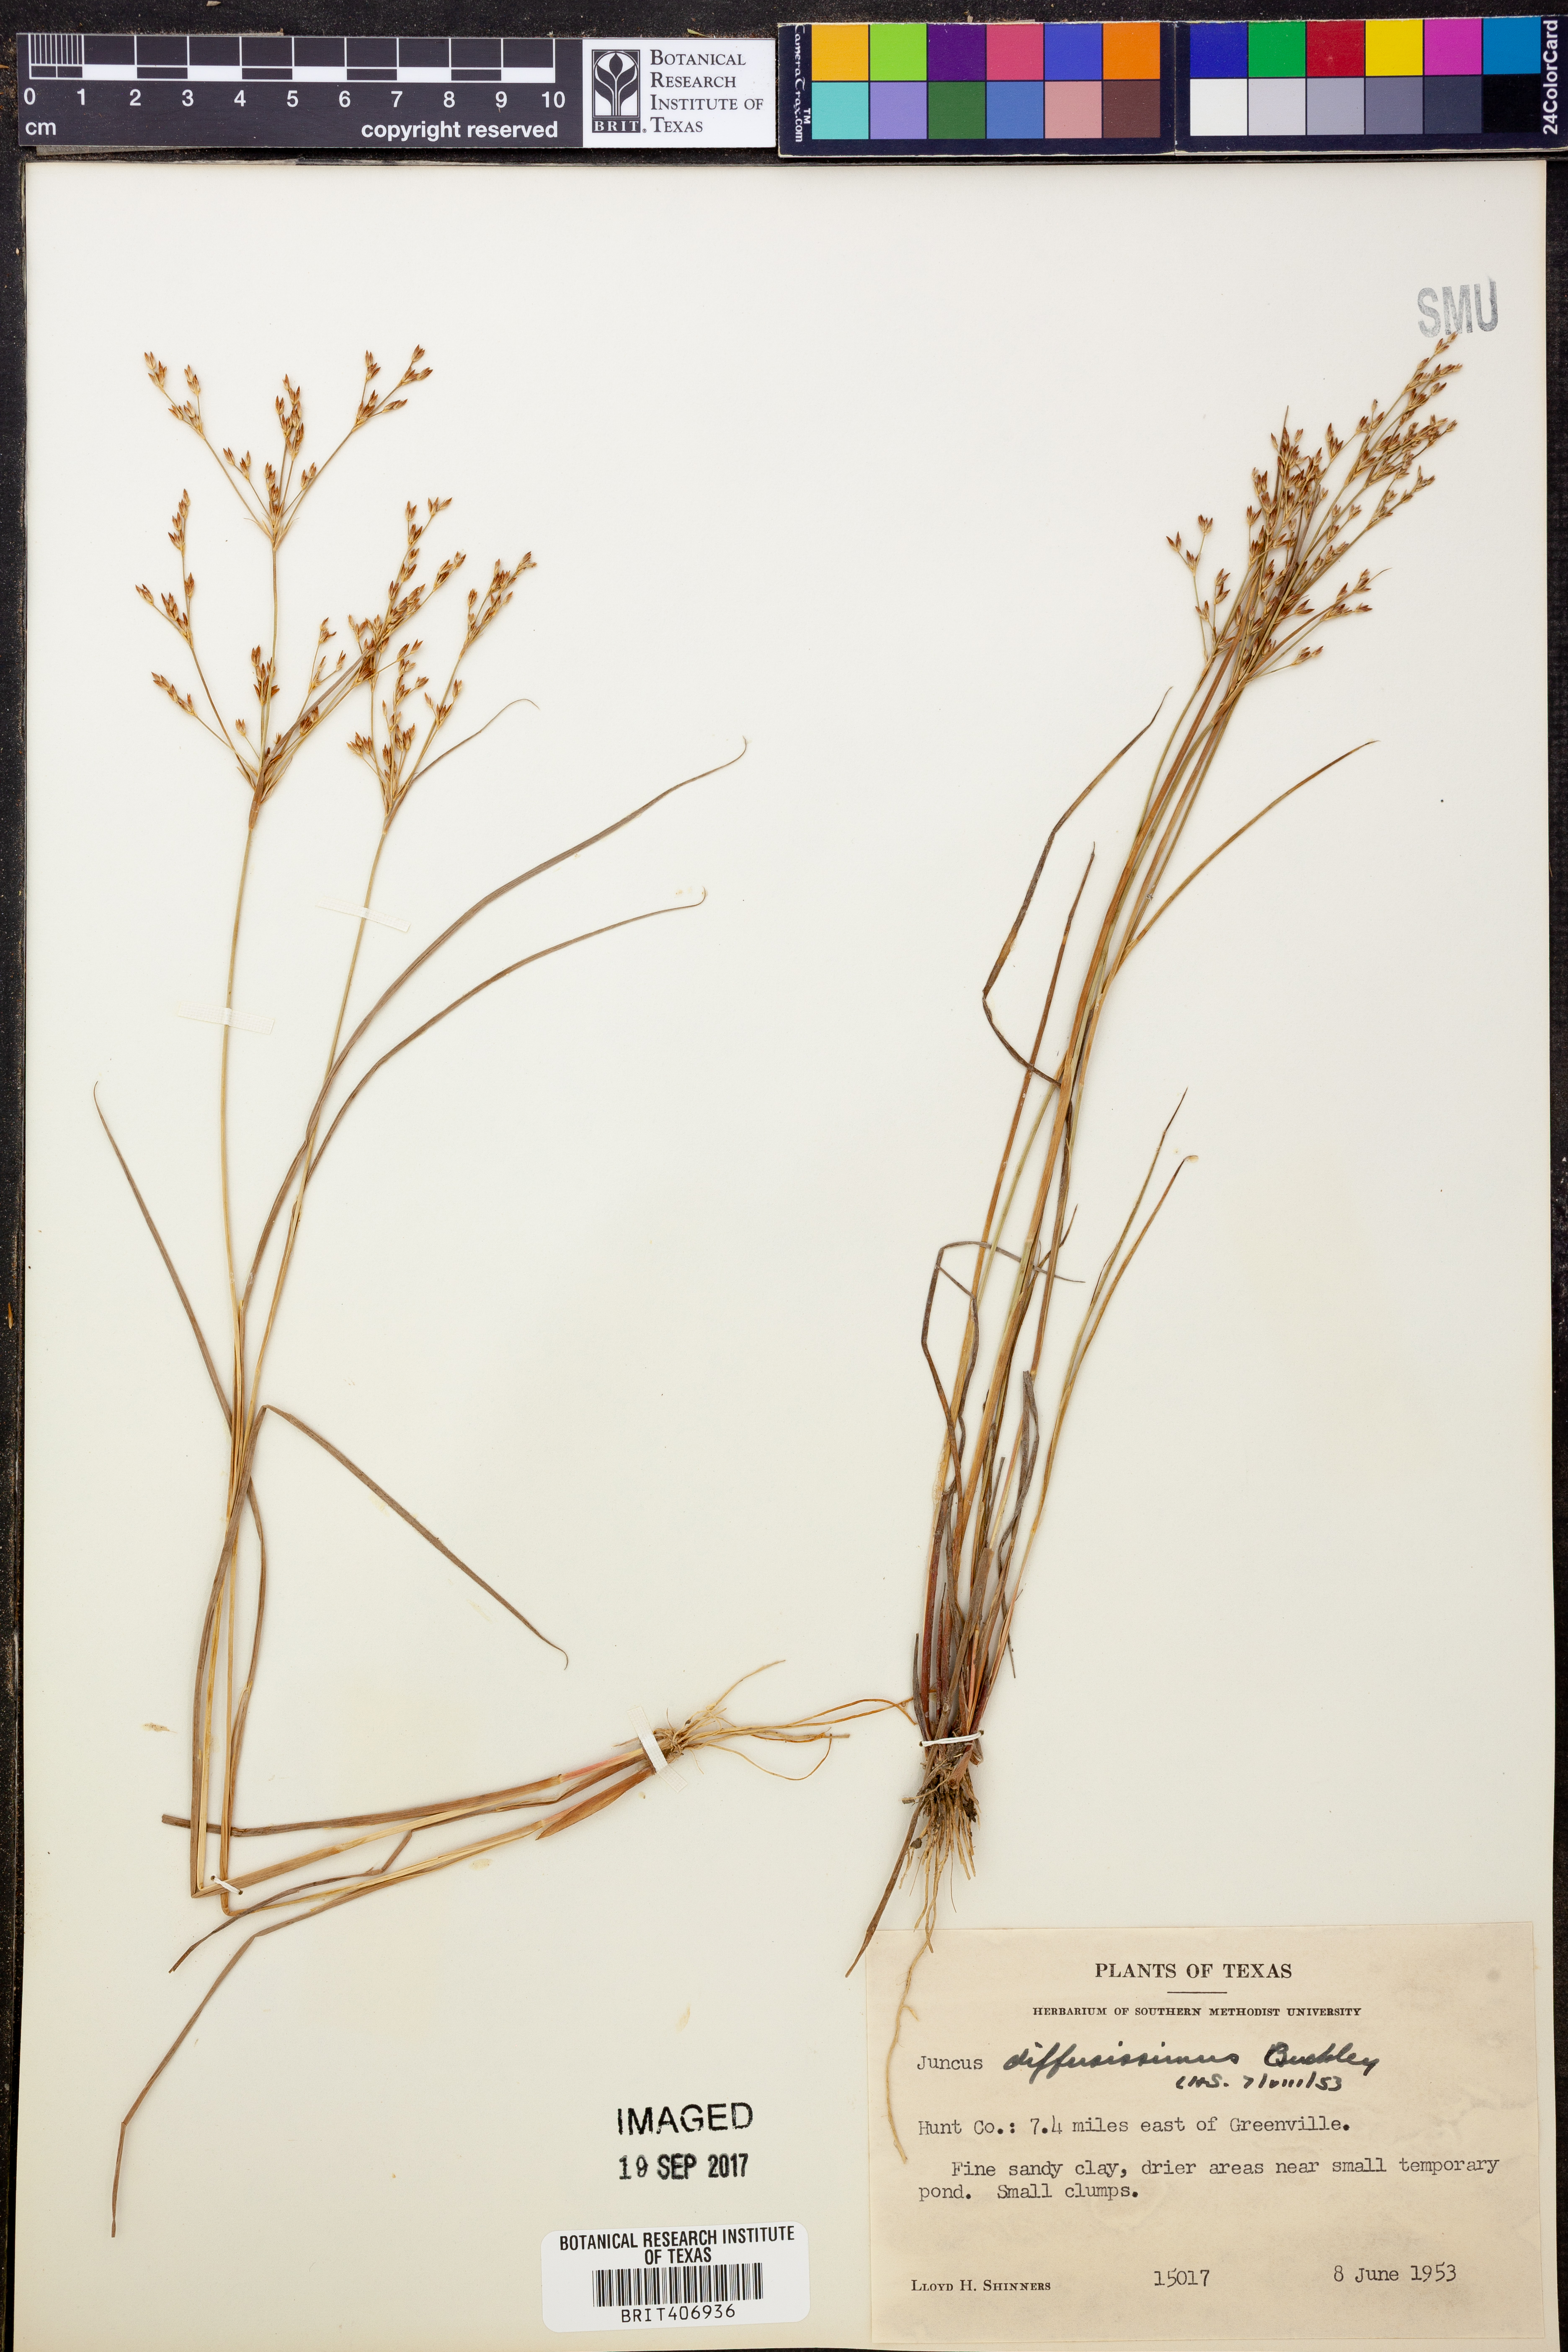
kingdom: Plantae
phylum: Tracheophyta
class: Liliopsida
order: Poales
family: Juncaceae
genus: Juncus
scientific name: Juncus diffusissimus
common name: Slimpod rush
